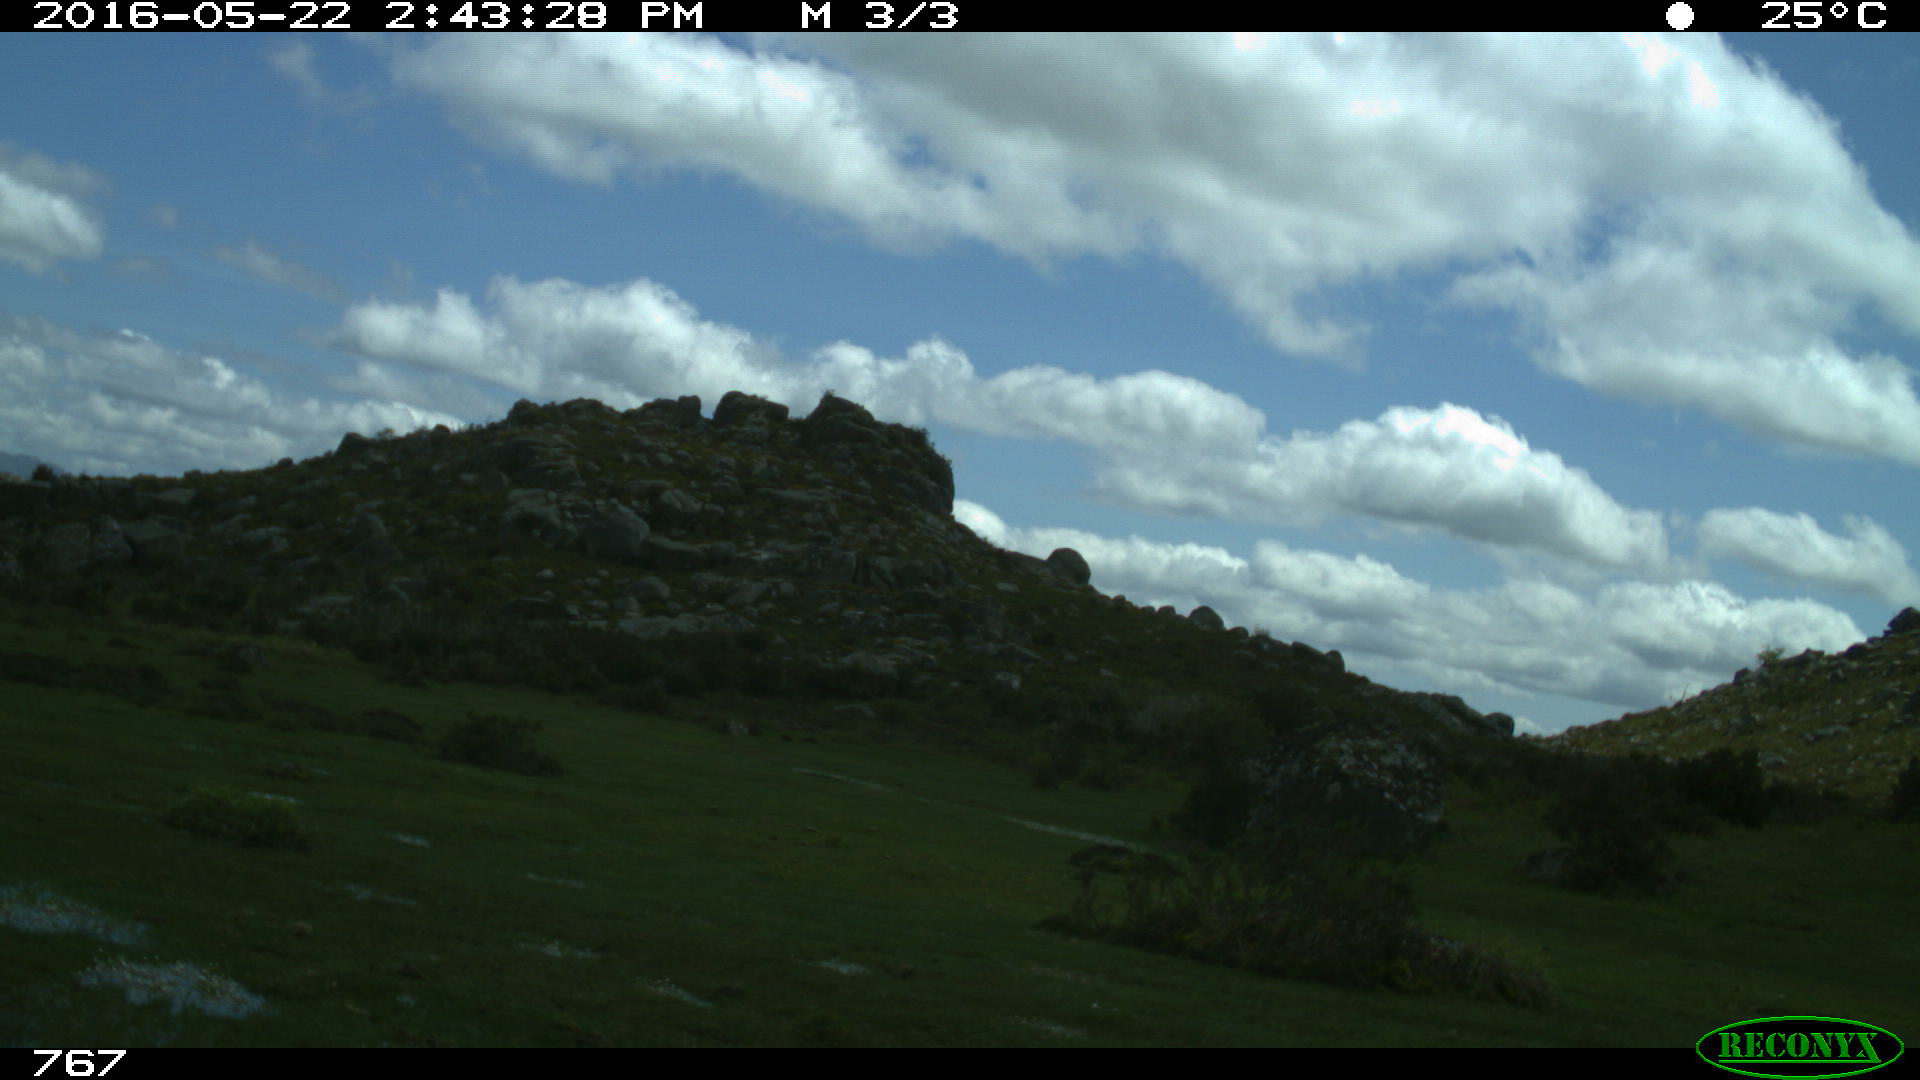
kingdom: Animalia
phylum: Chordata
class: Mammalia
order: Perissodactyla
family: Equidae
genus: Equus
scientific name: Equus caballus
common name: Horse
